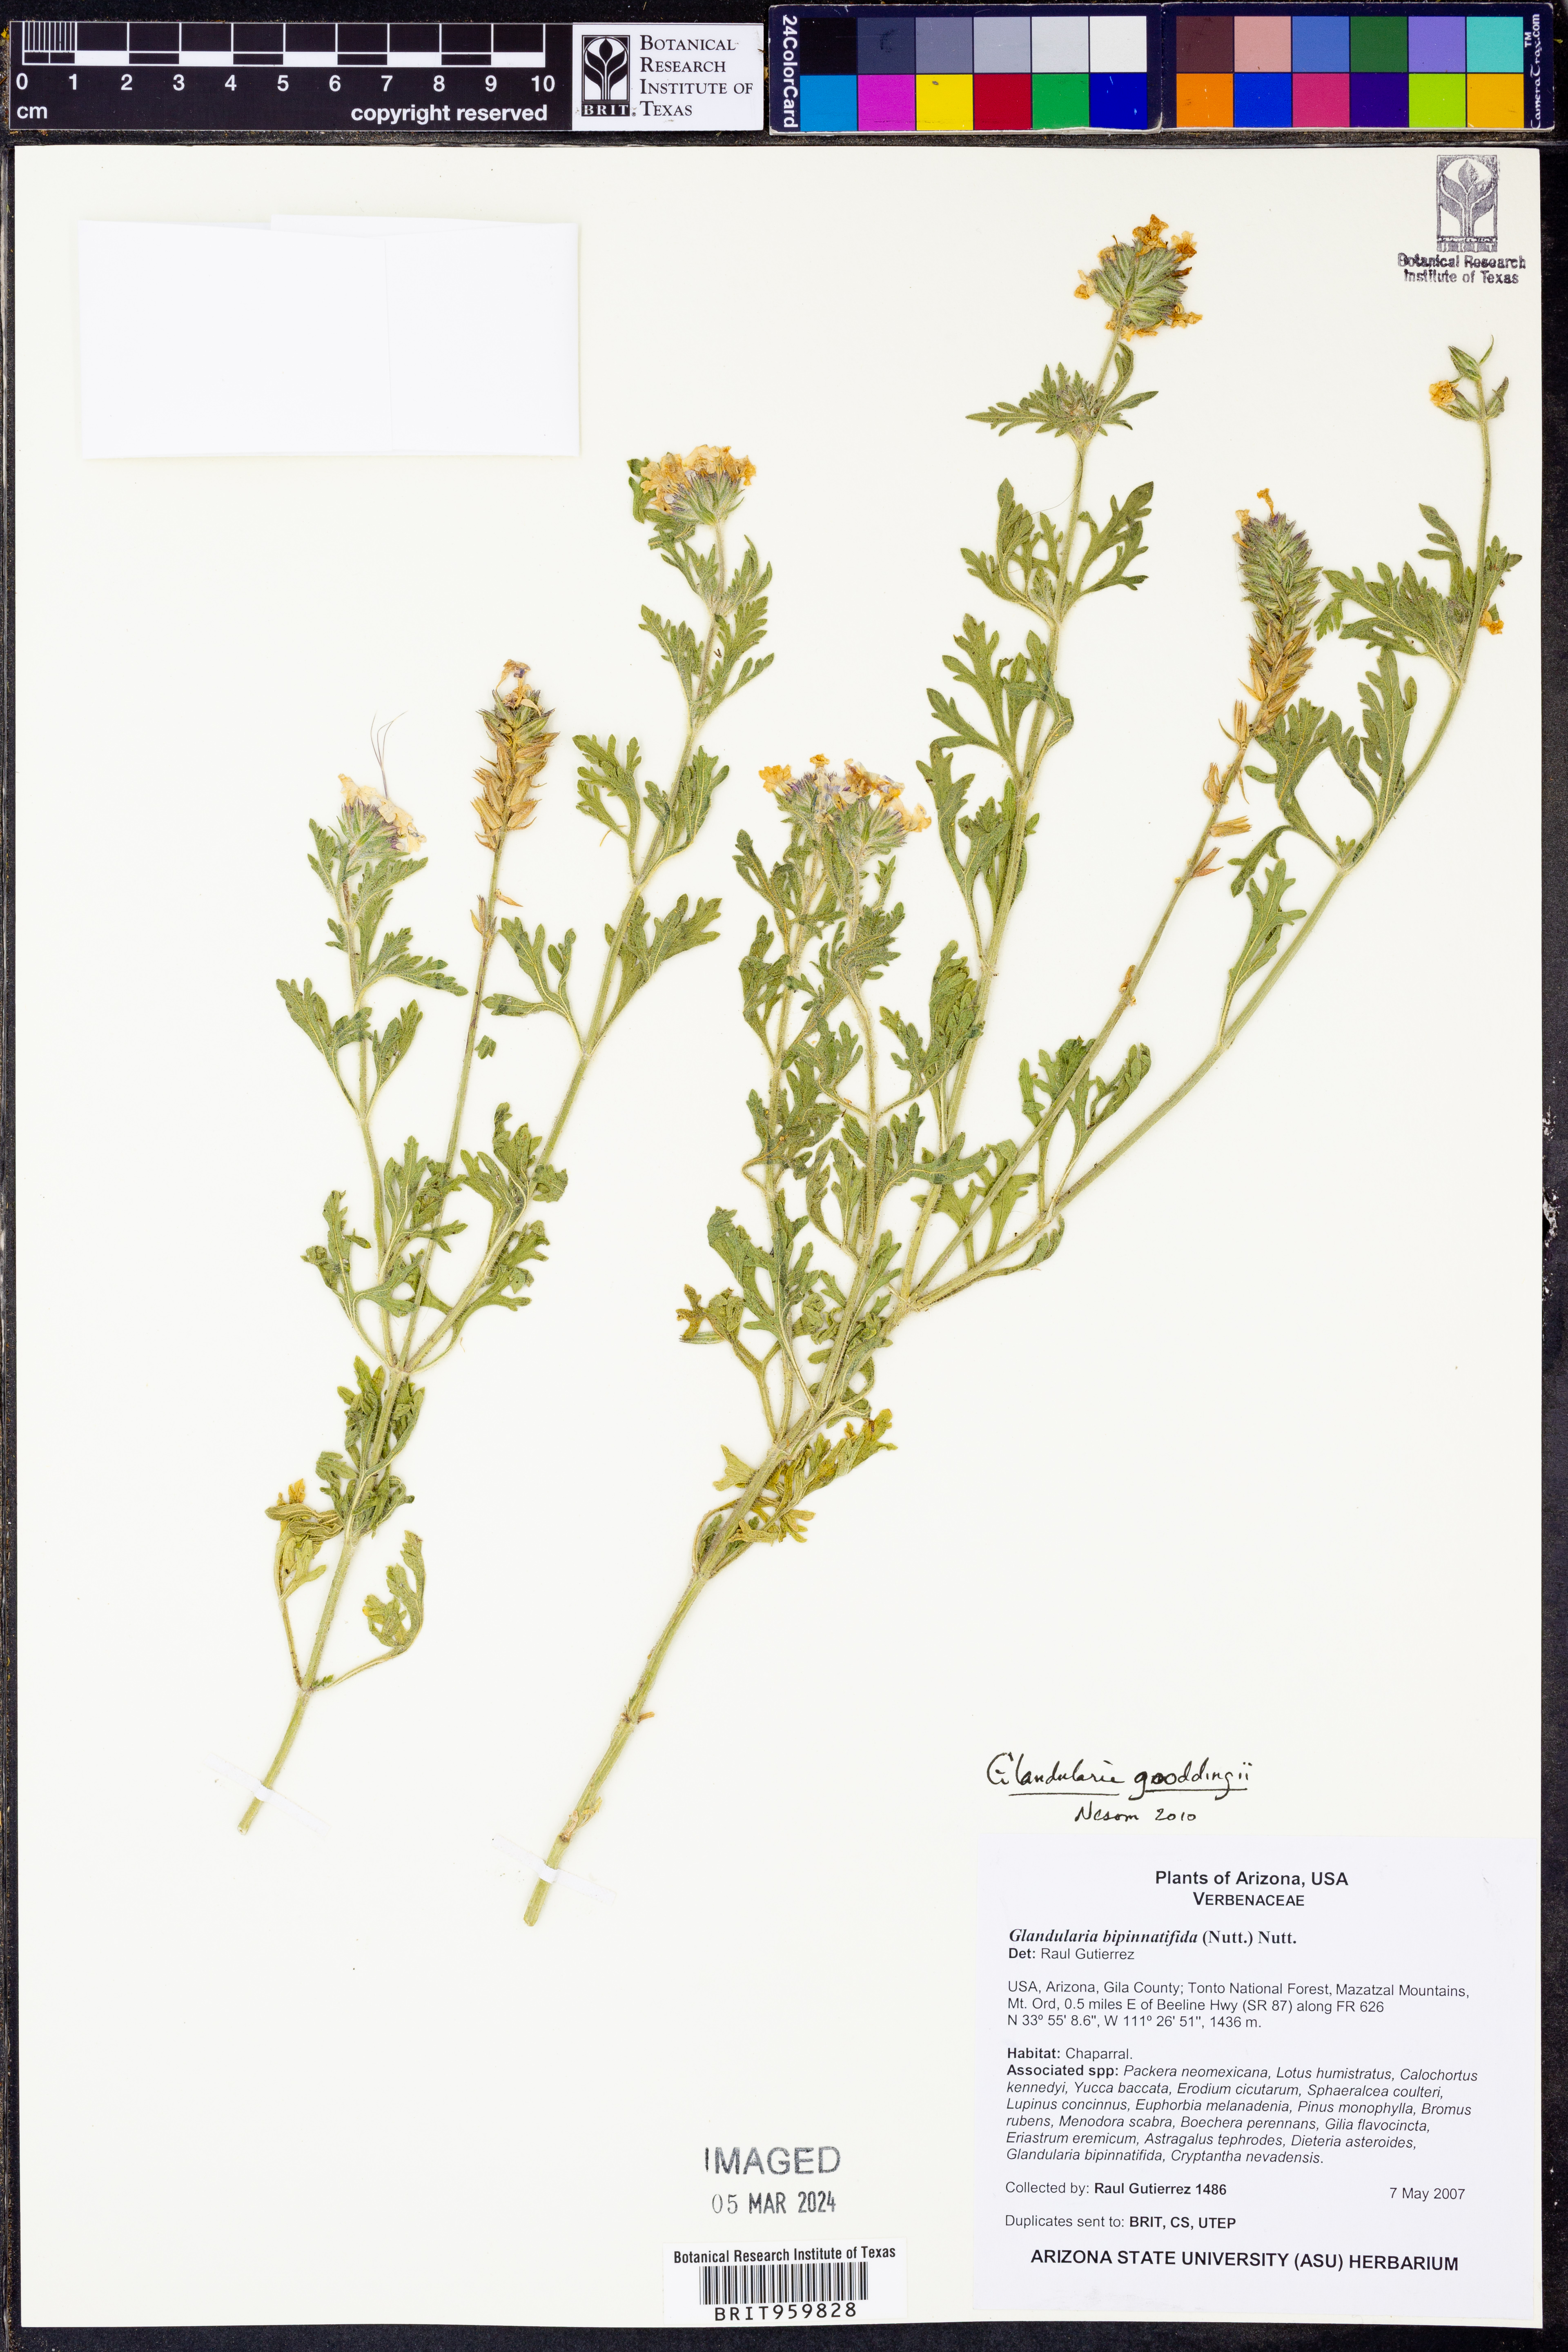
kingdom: Plantae
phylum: Tracheophyta
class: Magnoliopsida
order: Lamiales
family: Verbenaceae
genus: Verbena
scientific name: Verbena gooddingii
